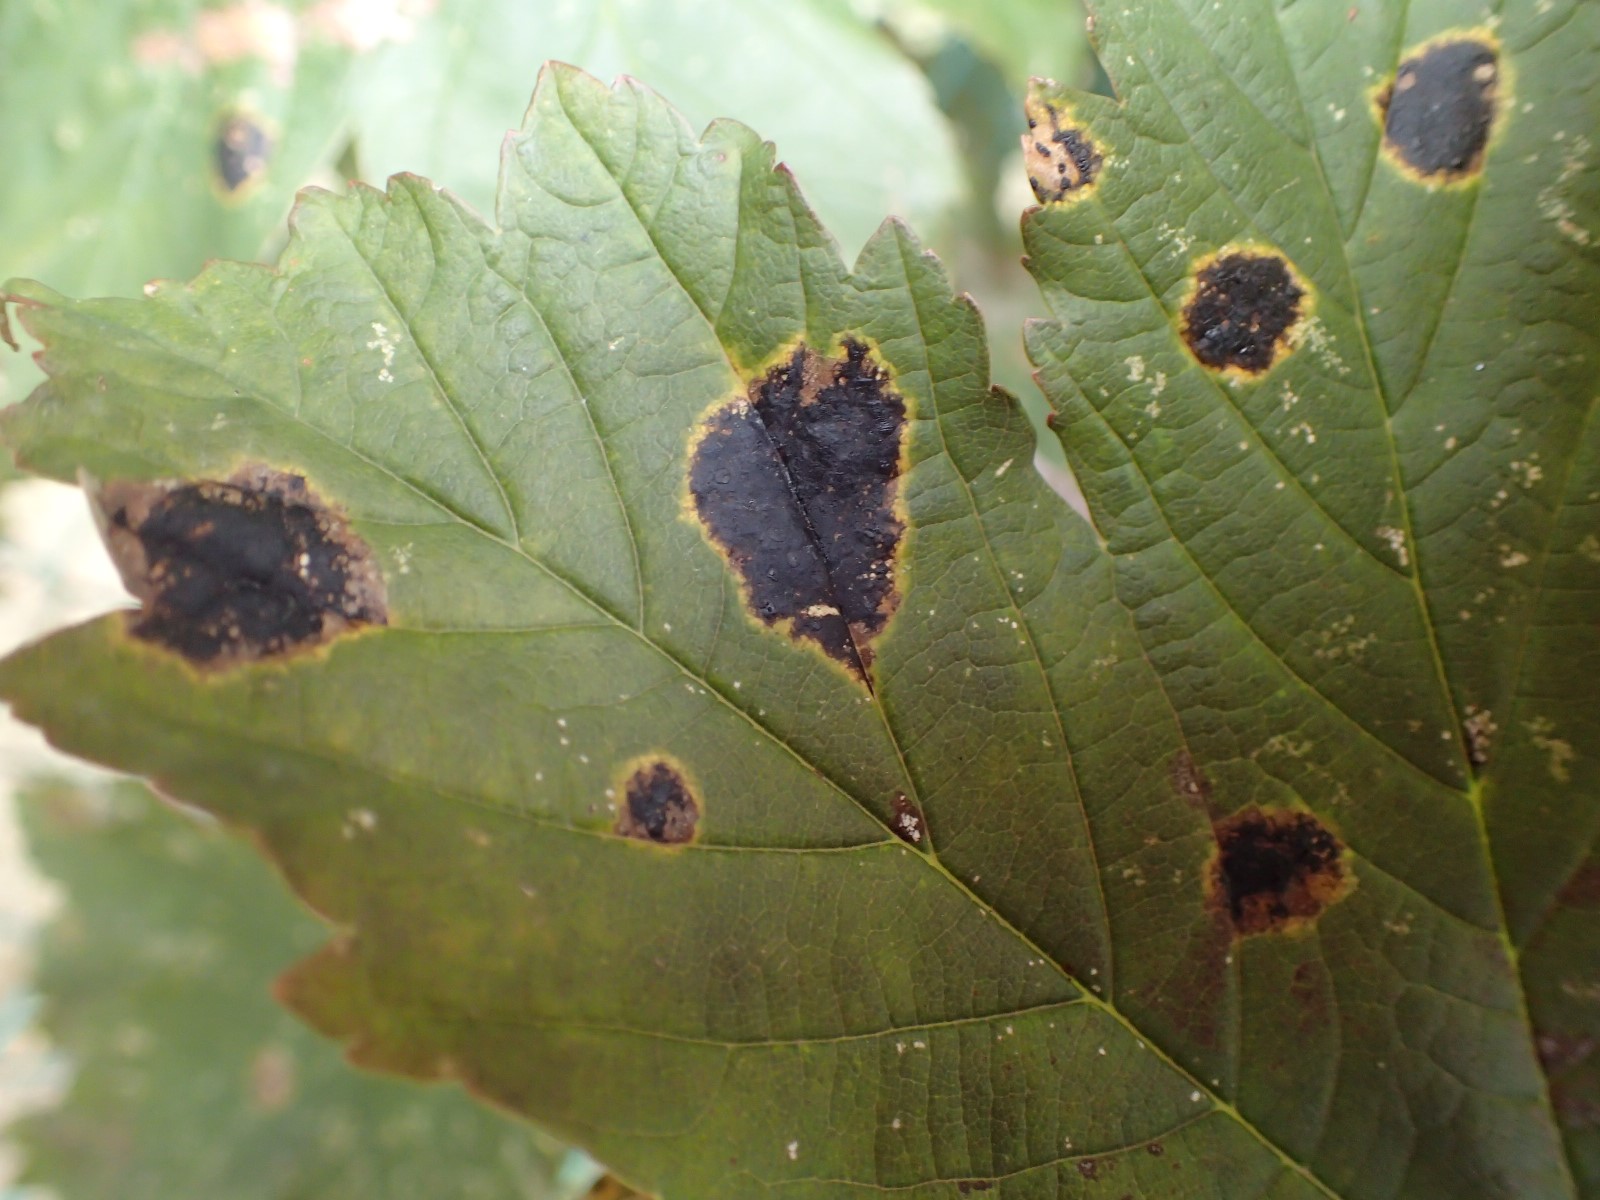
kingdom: Fungi
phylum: Ascomycota
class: Leotiomycetes
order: Rhytismatales
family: Rhytismataceae
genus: Rhytisma
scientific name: Rhytisma acerinum
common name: ahorn-rynkeplet
